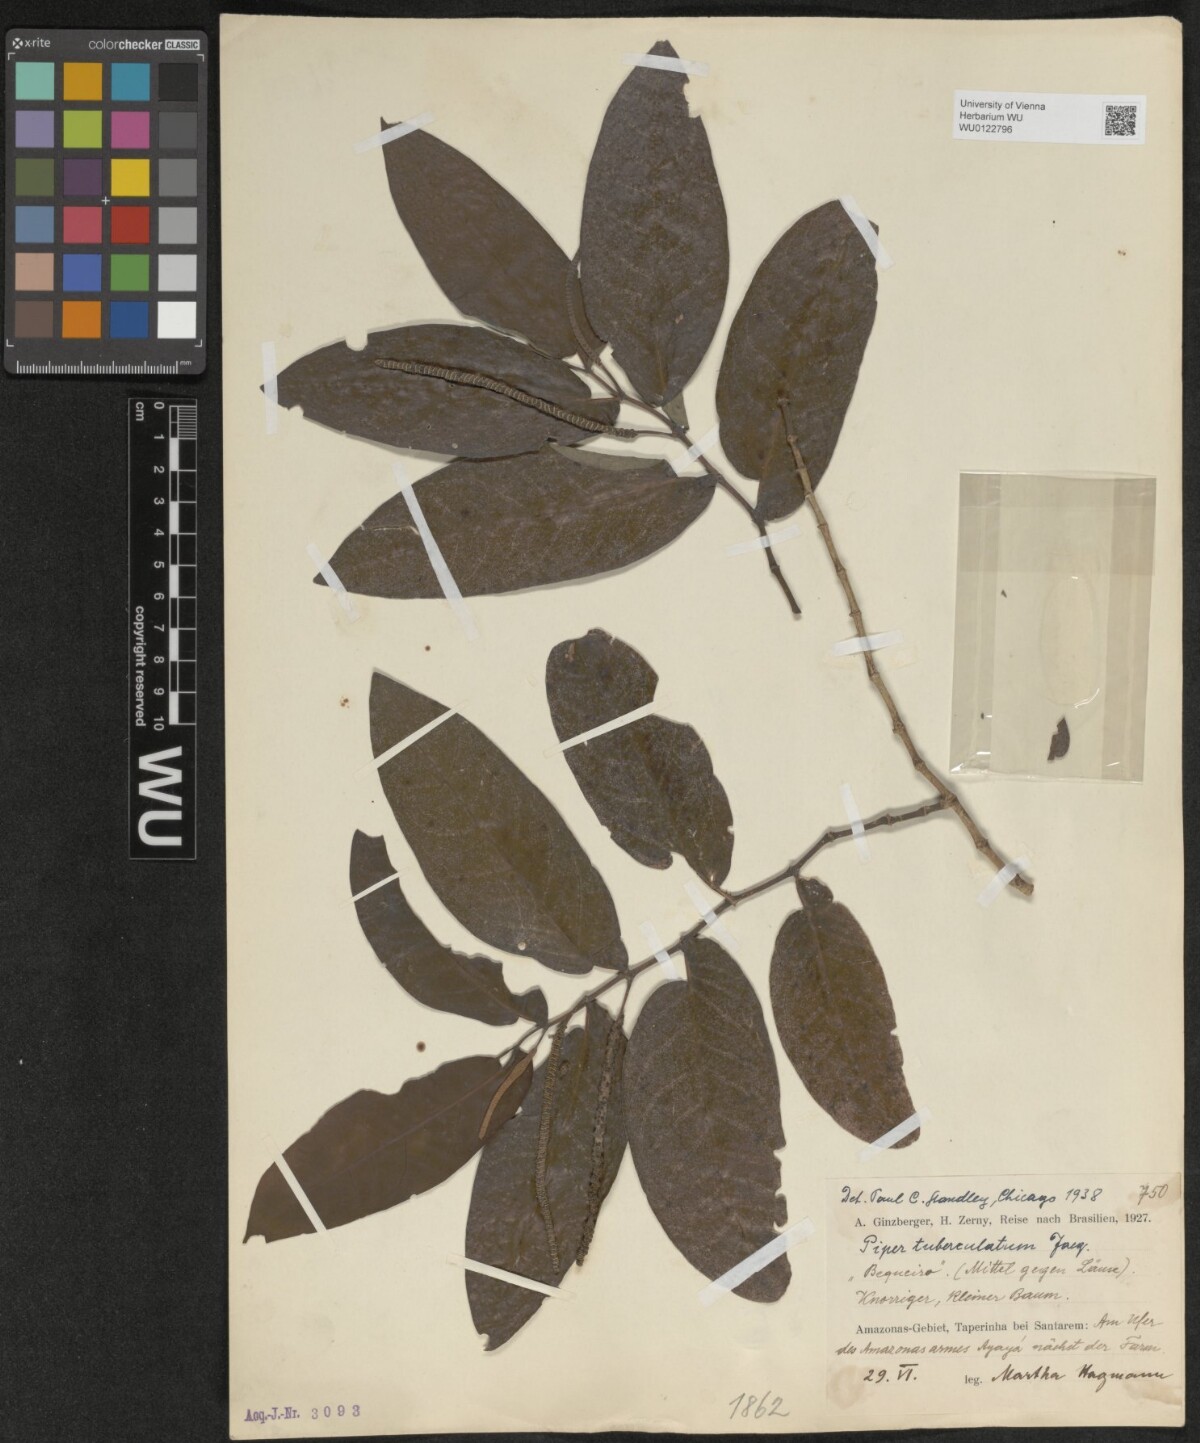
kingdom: Plantae
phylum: Tracheophyta
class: Magnoliopsida
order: Piperales
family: Piperaceae
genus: Piper
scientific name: Piper tuberculatum
